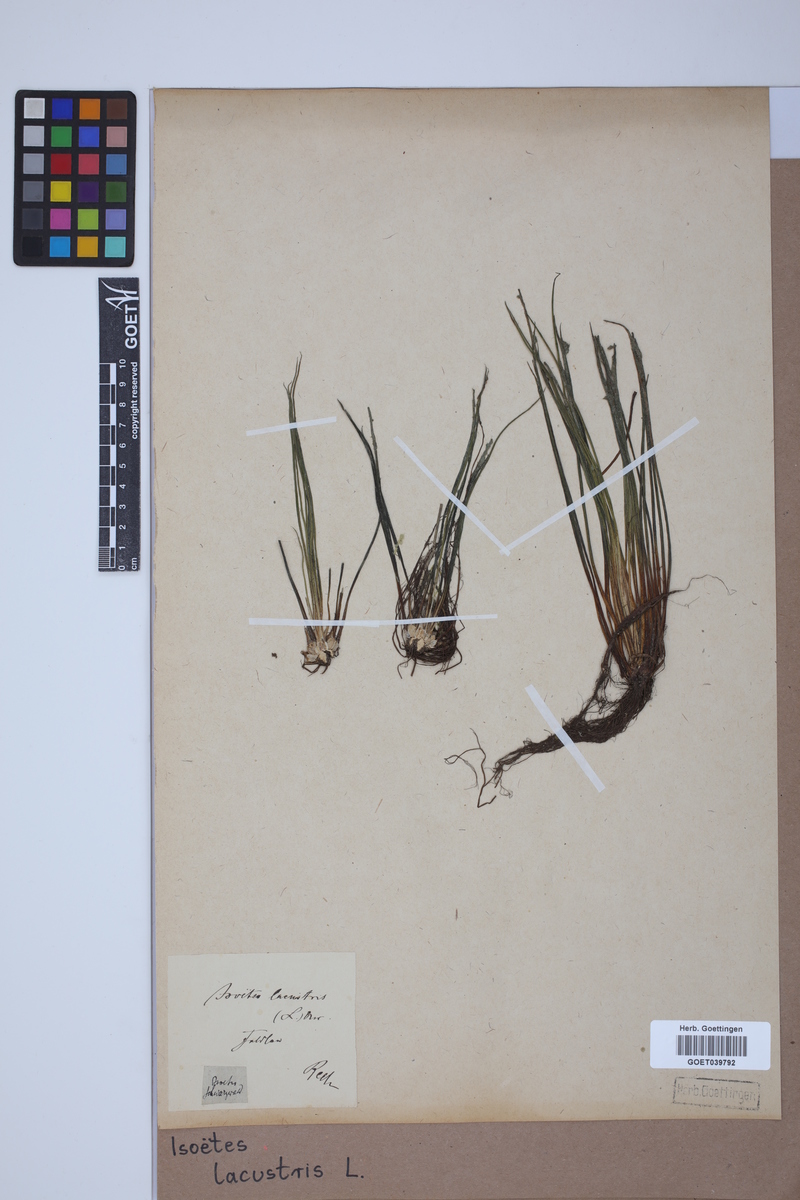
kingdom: Plantae
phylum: Tracheophyta
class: Lycopodiopsida
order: Isoetales
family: Isoetaceae
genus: Isoetes
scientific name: Isoetes lacustris
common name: Common quillwort
